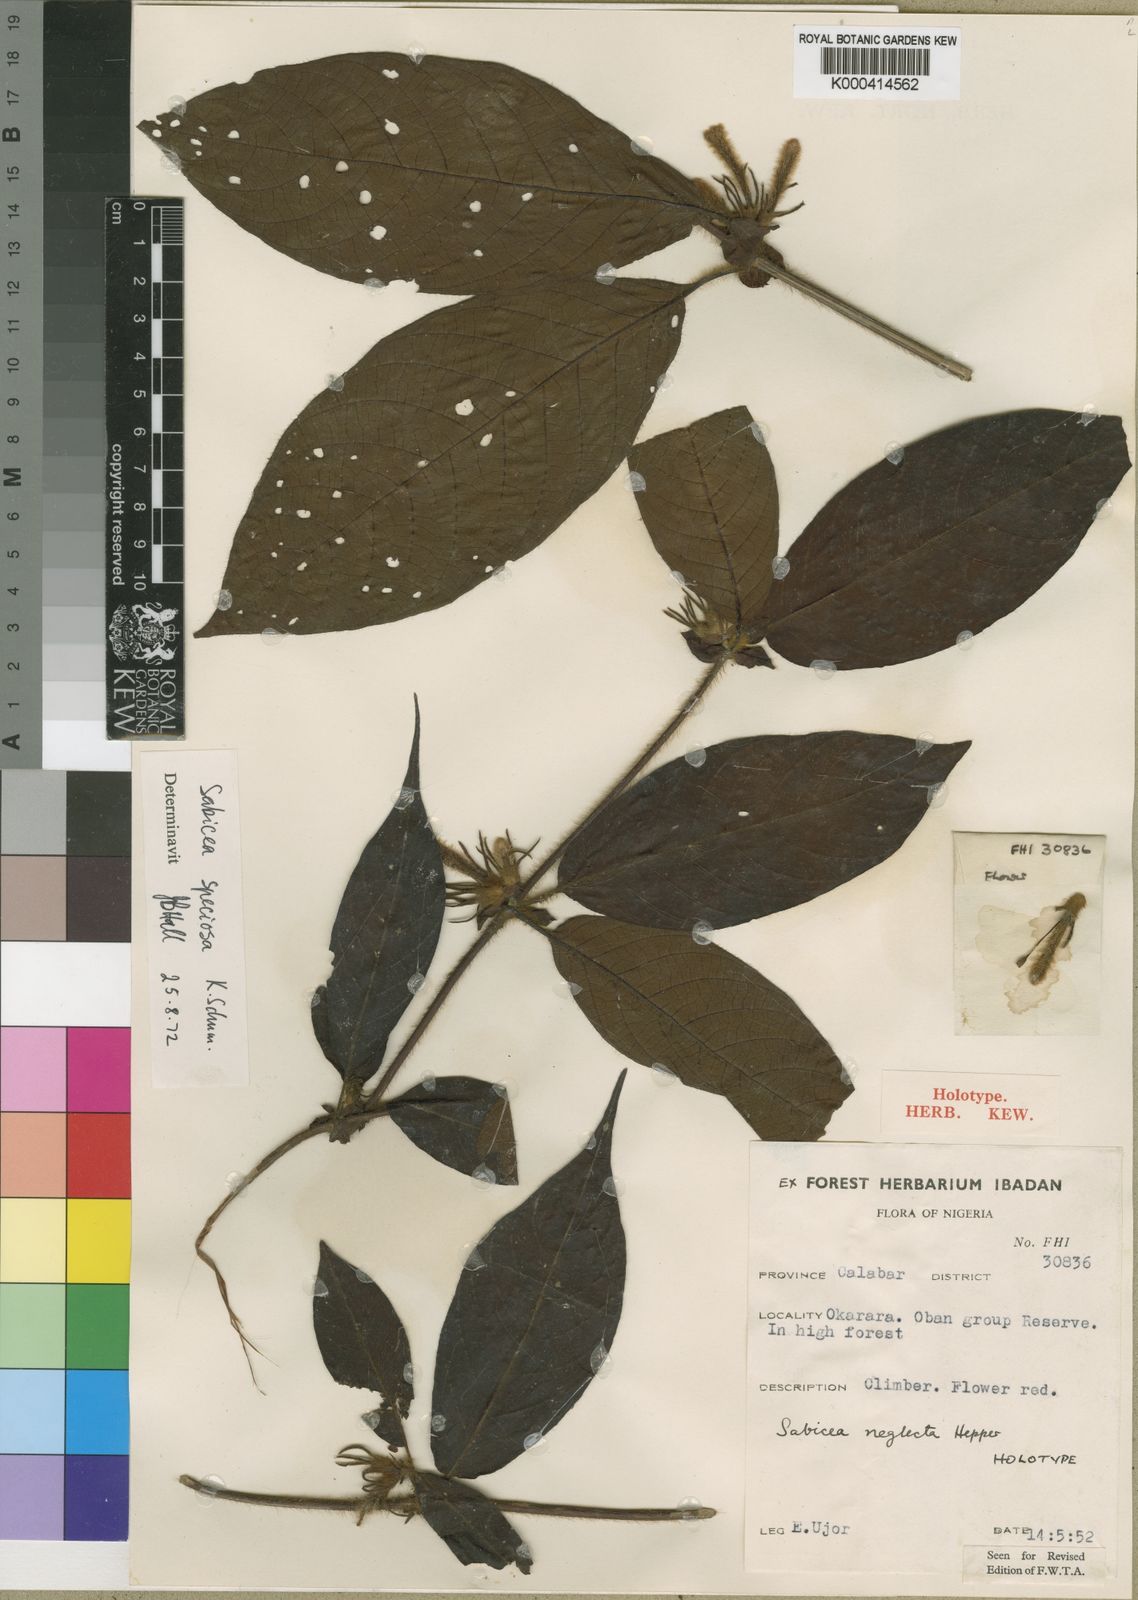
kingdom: Plantae
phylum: Tracheophyta
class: Magnoliopsida
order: Gentianales
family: Rubiaceae
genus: Sabicea
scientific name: Sabicea speciosa
